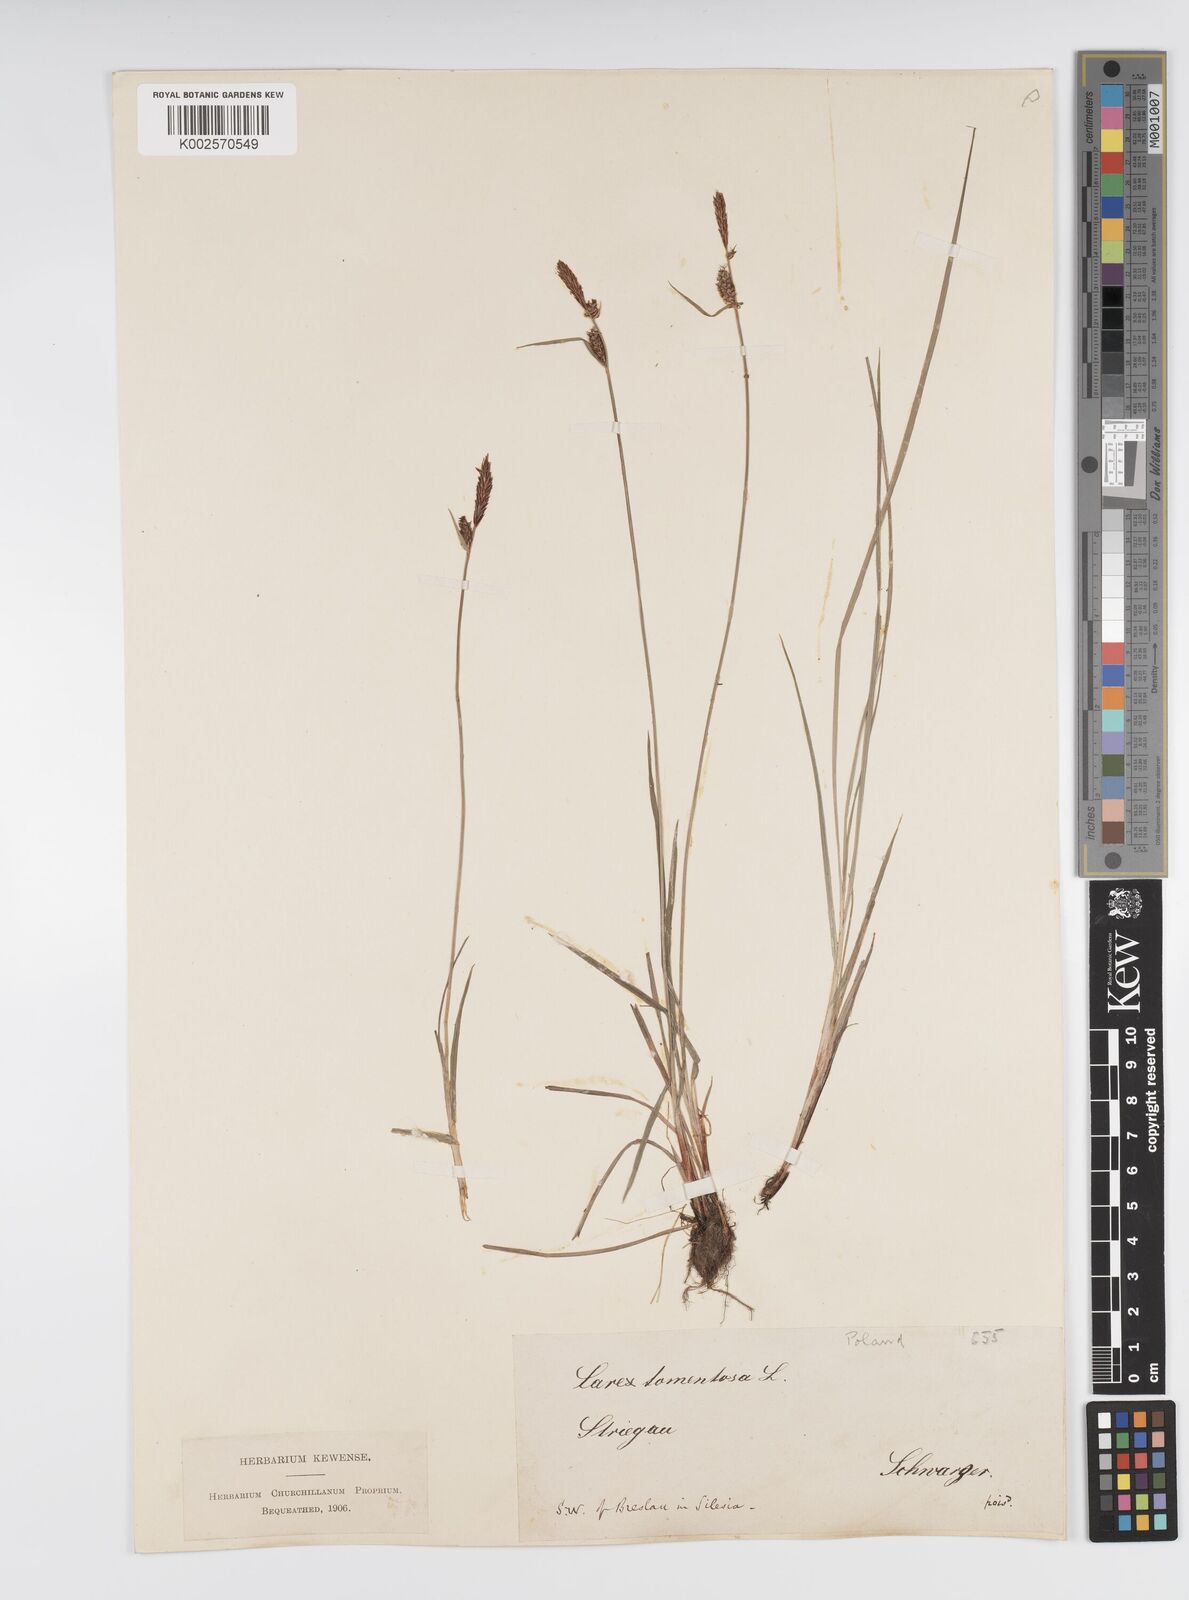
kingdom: Plantae
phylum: Tracheophyta
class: Liliopsida
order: Poales
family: Cyperaceae
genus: Carex
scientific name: Carex montana
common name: Soft-leaved sedge
